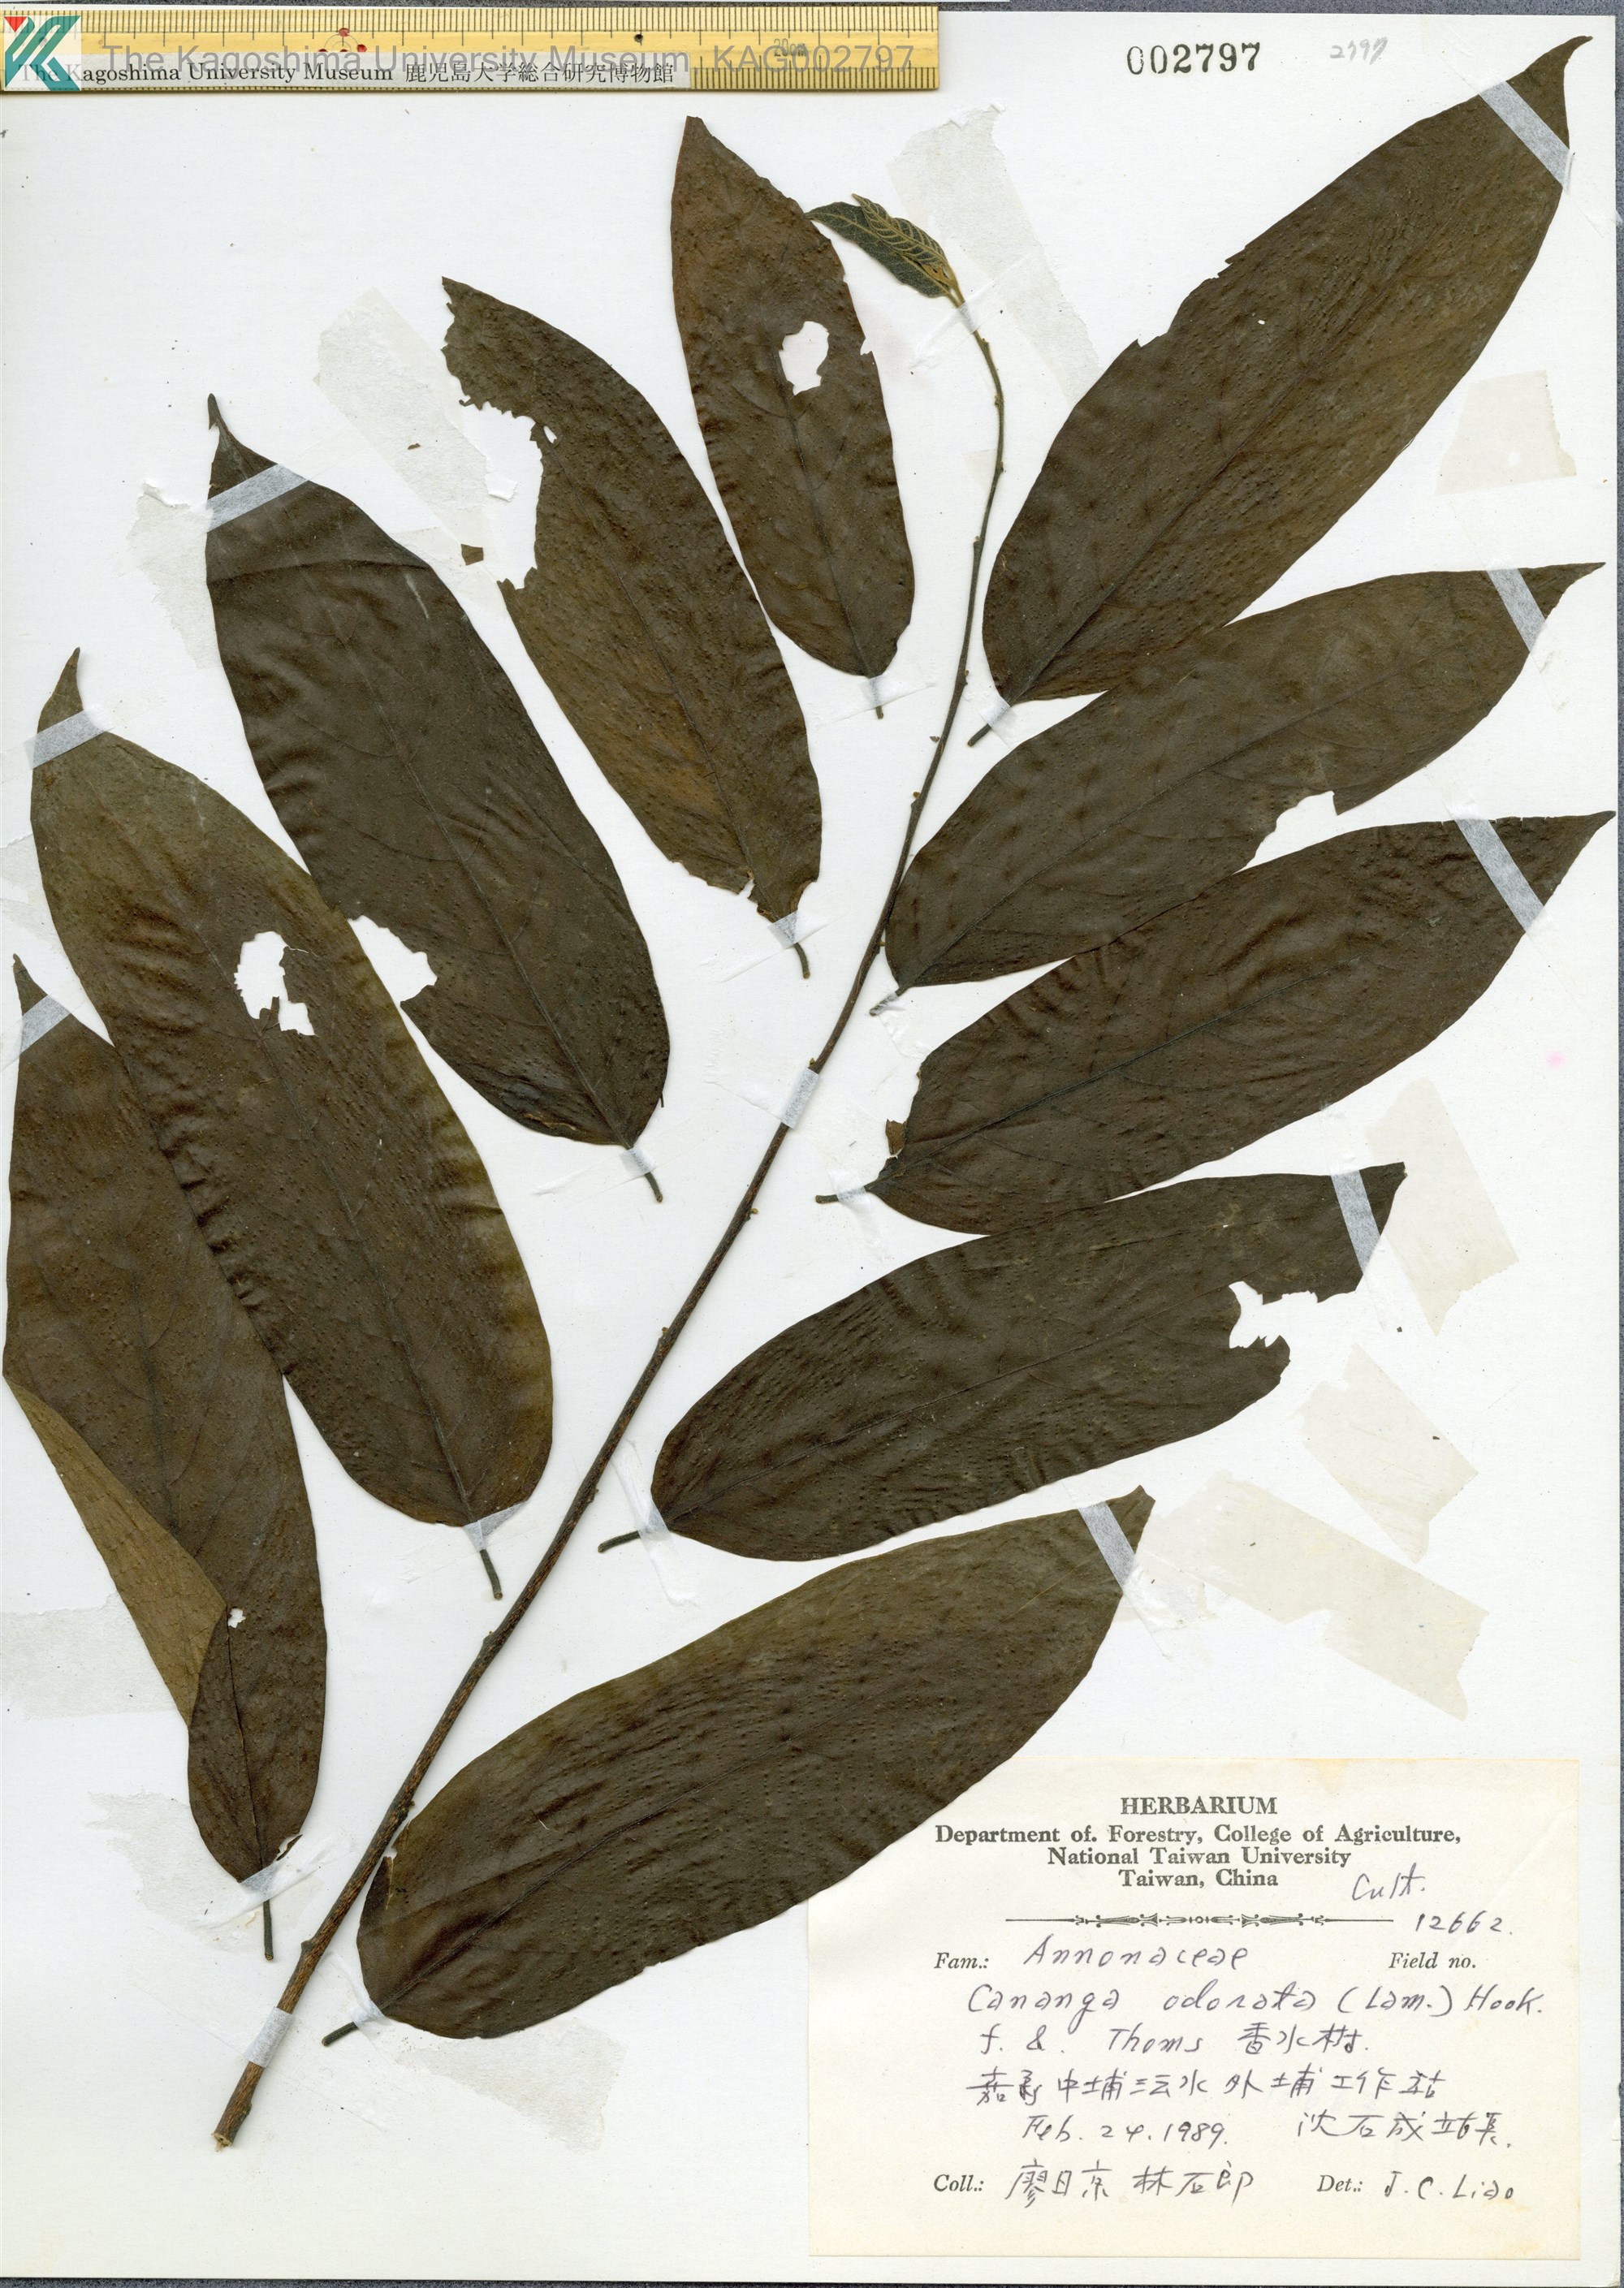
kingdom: Plantae
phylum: Tracheophyta
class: Magnoliopsida
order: Magnoliales
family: Annonaceae
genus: Cananga
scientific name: Cananga odorata
